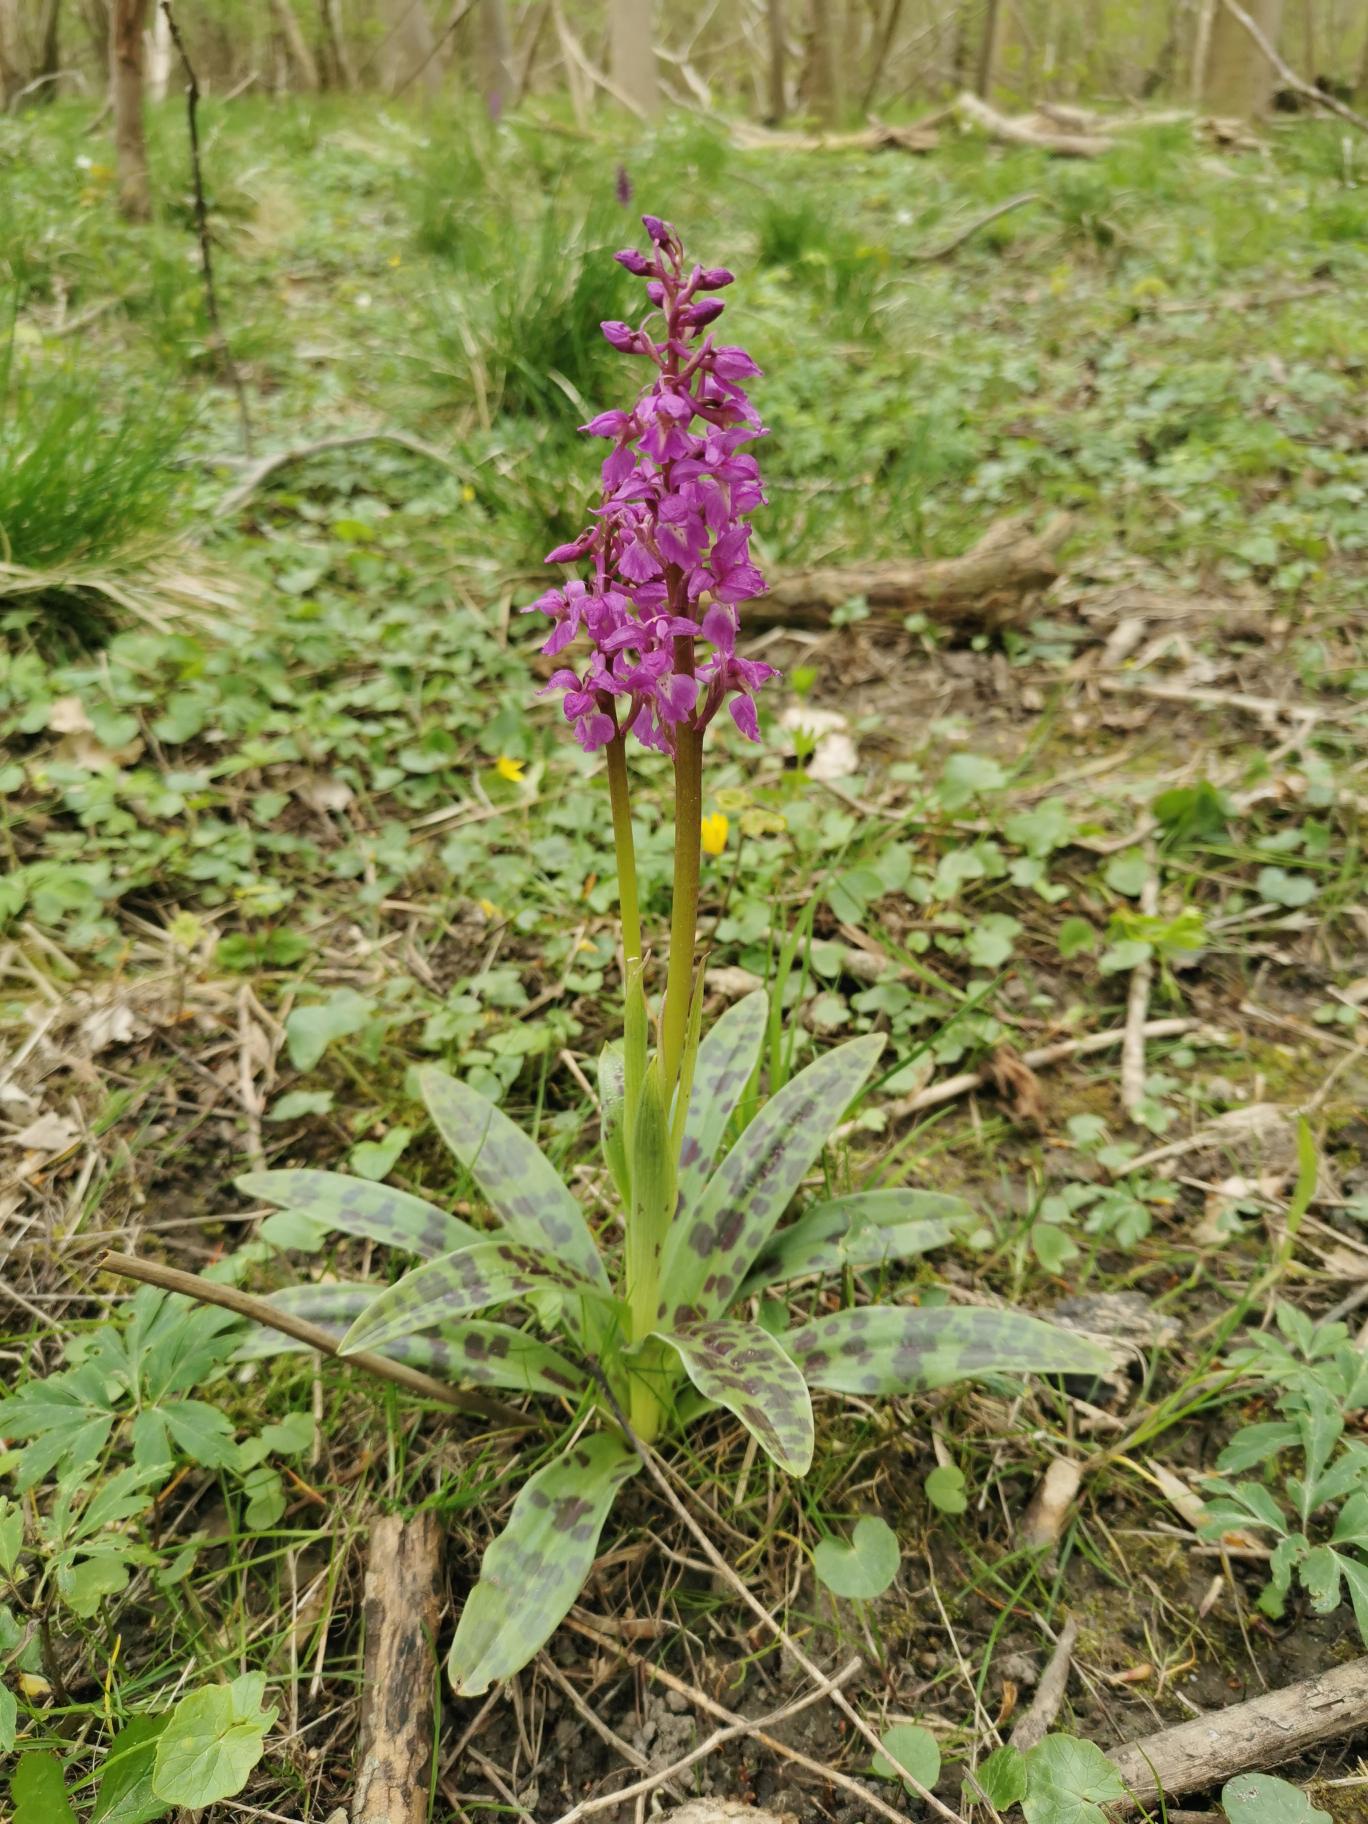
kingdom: Plantae
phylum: Tracheophyta
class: Liliopsida
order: Asparagales
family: Orchidaceae
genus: Orchis
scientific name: Orchis mascula
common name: Tyndakset gøgeurt
